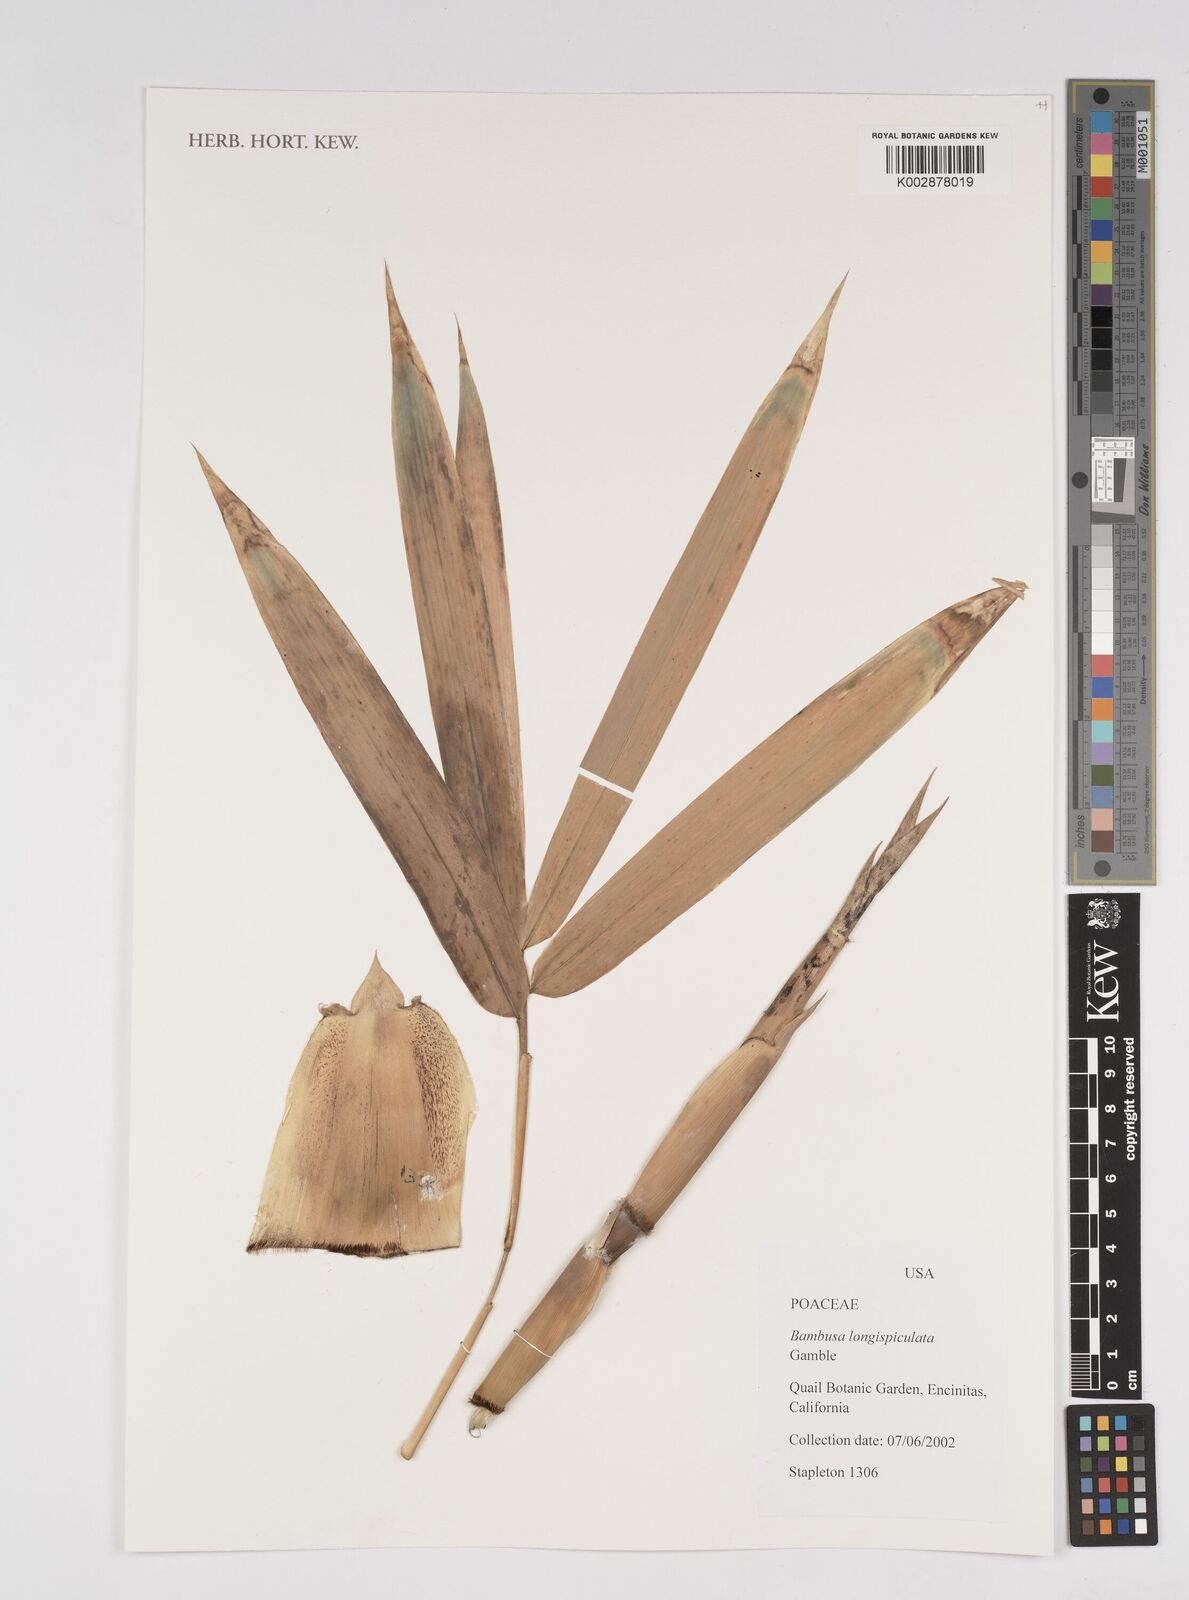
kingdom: Plantae
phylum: Tracheophyta
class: Liliopsida
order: Poales
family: Poaceae
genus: Bambusa
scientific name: Bambusa longispiculata
